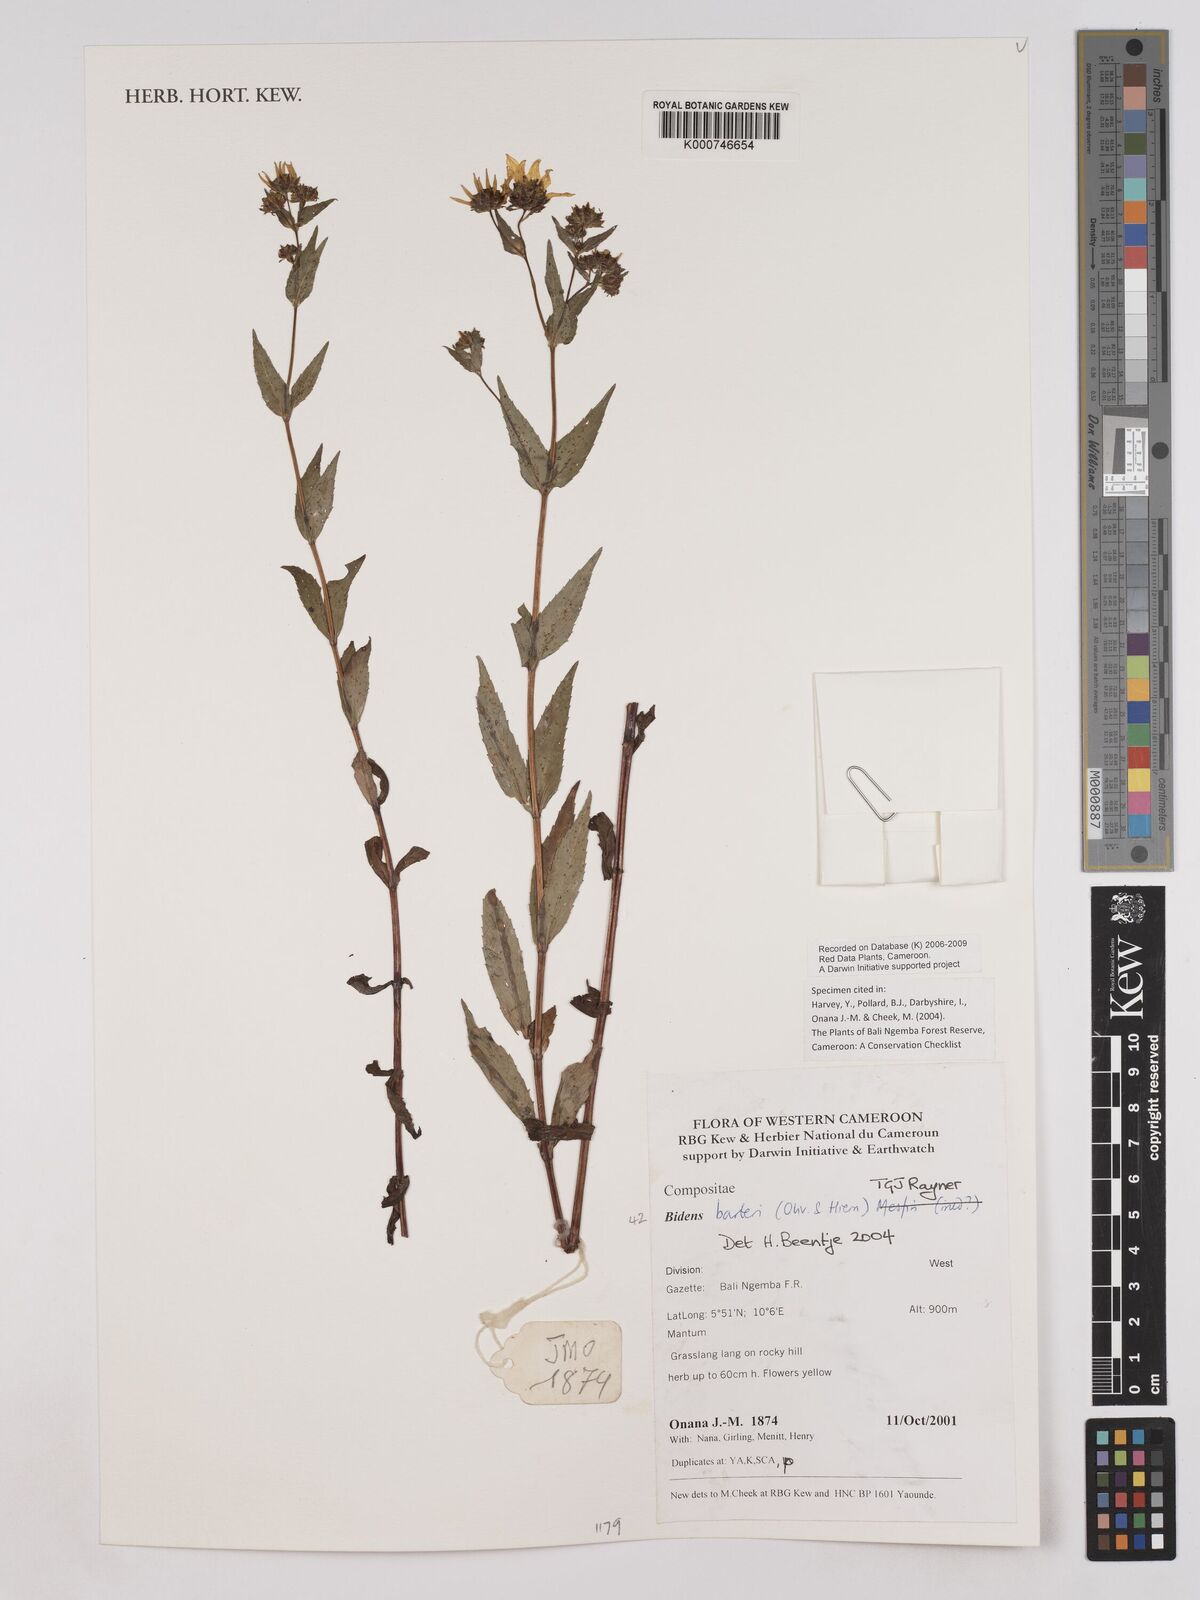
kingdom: Plantae
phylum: Tracheophyta
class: Magnoliopsida
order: Asterales
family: Asteraceae
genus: Bidens
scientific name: Bidens barteri
